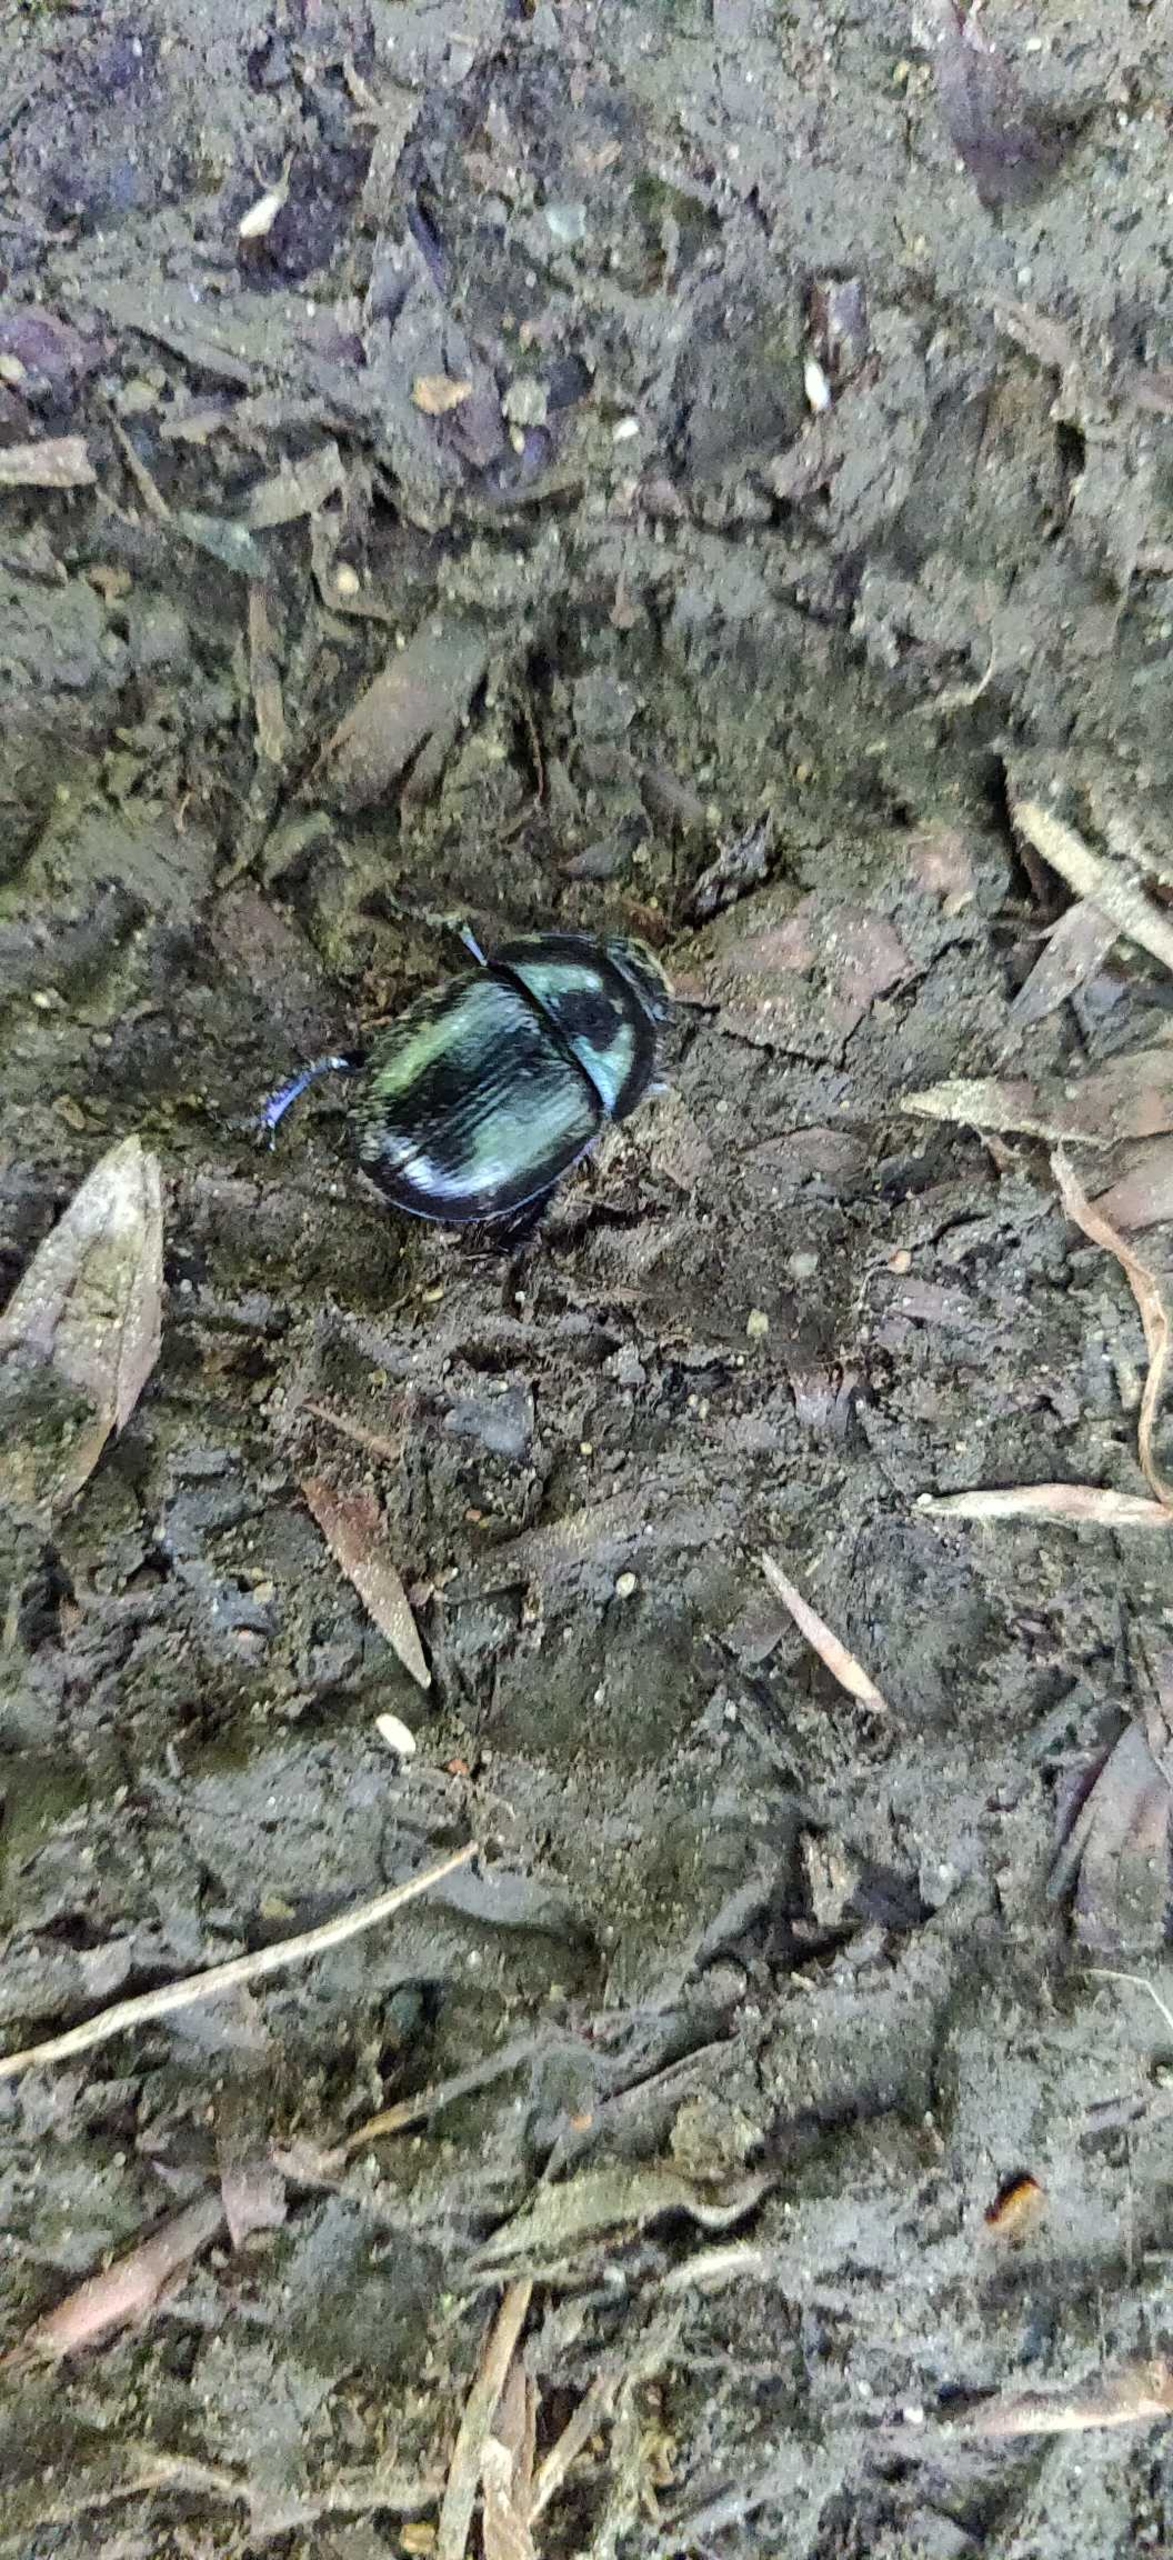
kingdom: Animalia
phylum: Arthropoda
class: Insecta
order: Coleoptera
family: Geotrupidae
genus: Anoplotrupes
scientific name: Anoplotrupes stercorosus
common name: Skovskarnbasse
